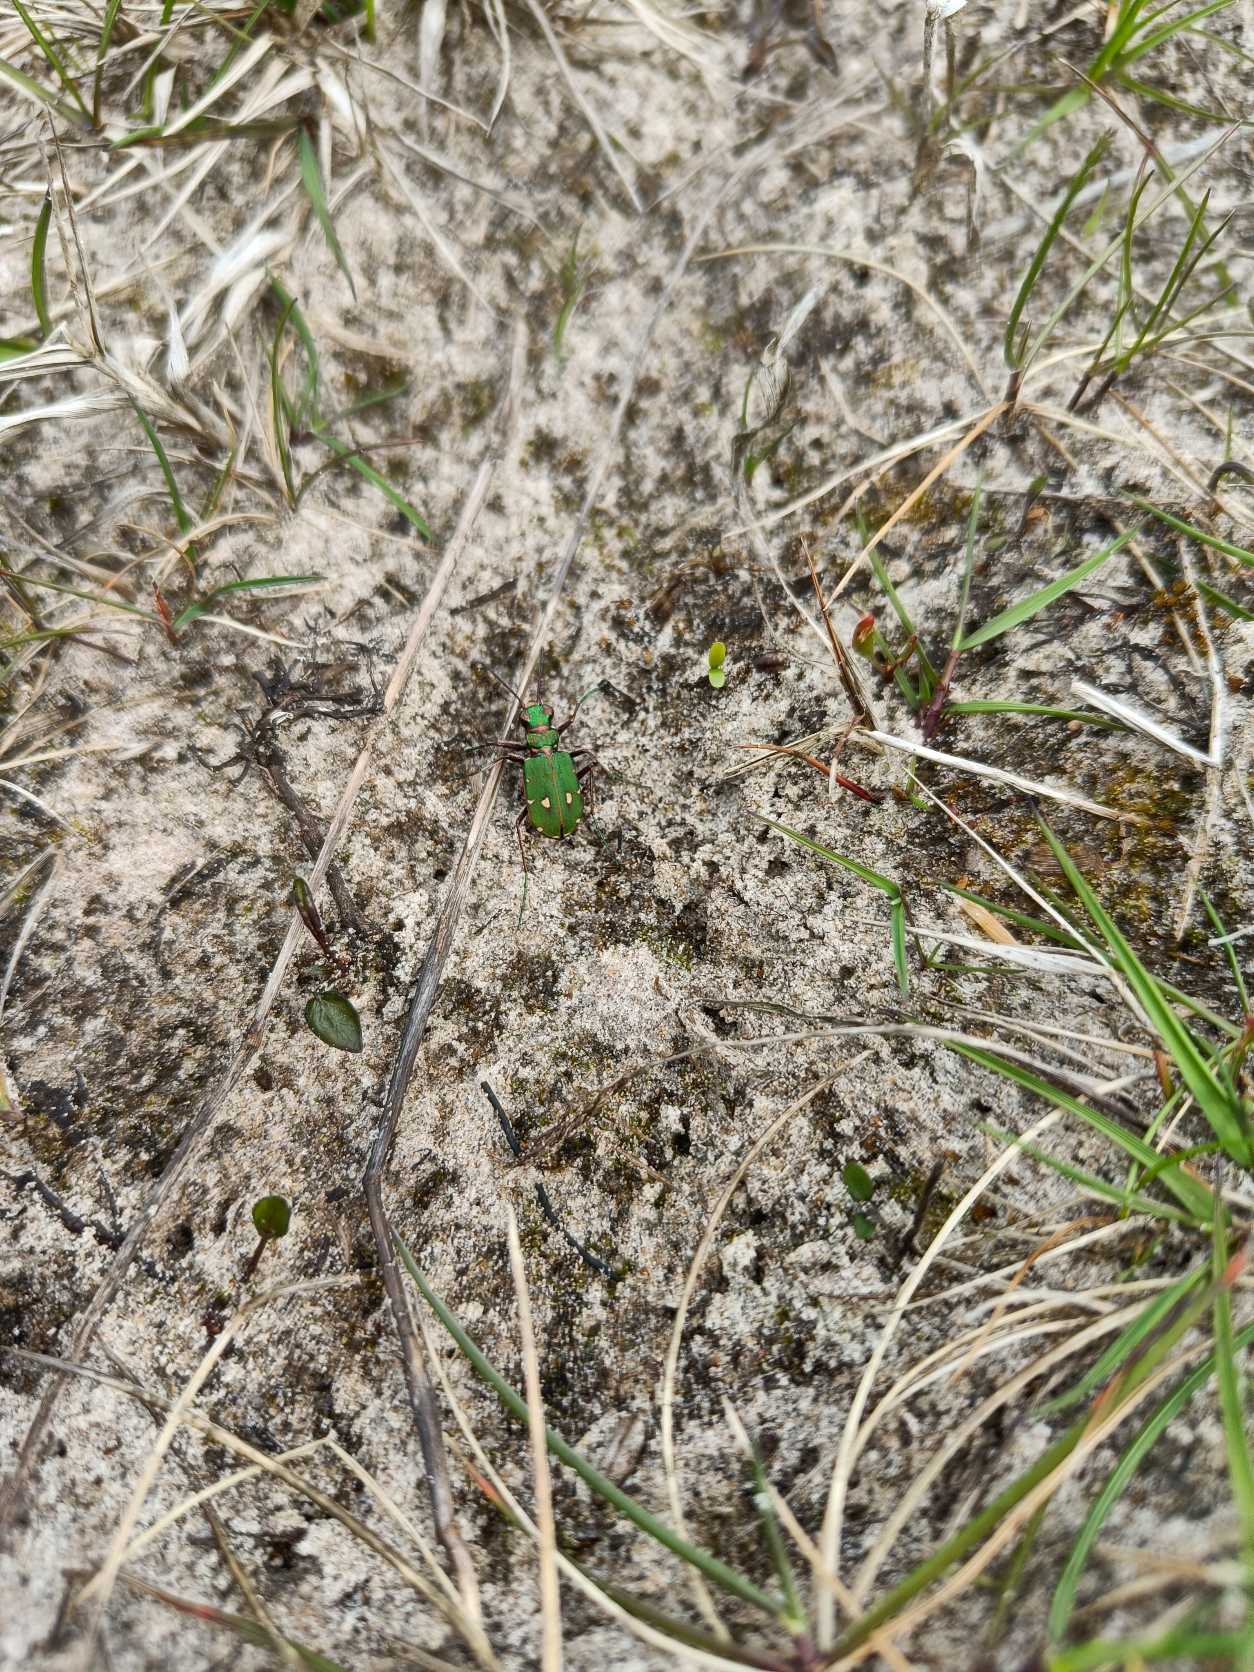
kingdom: Animalia
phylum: Arthropoda
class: Insecta
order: Coleoptera
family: Carabidae
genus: Cicindela
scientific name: Cicindela campestris
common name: Grøn sandspringer
